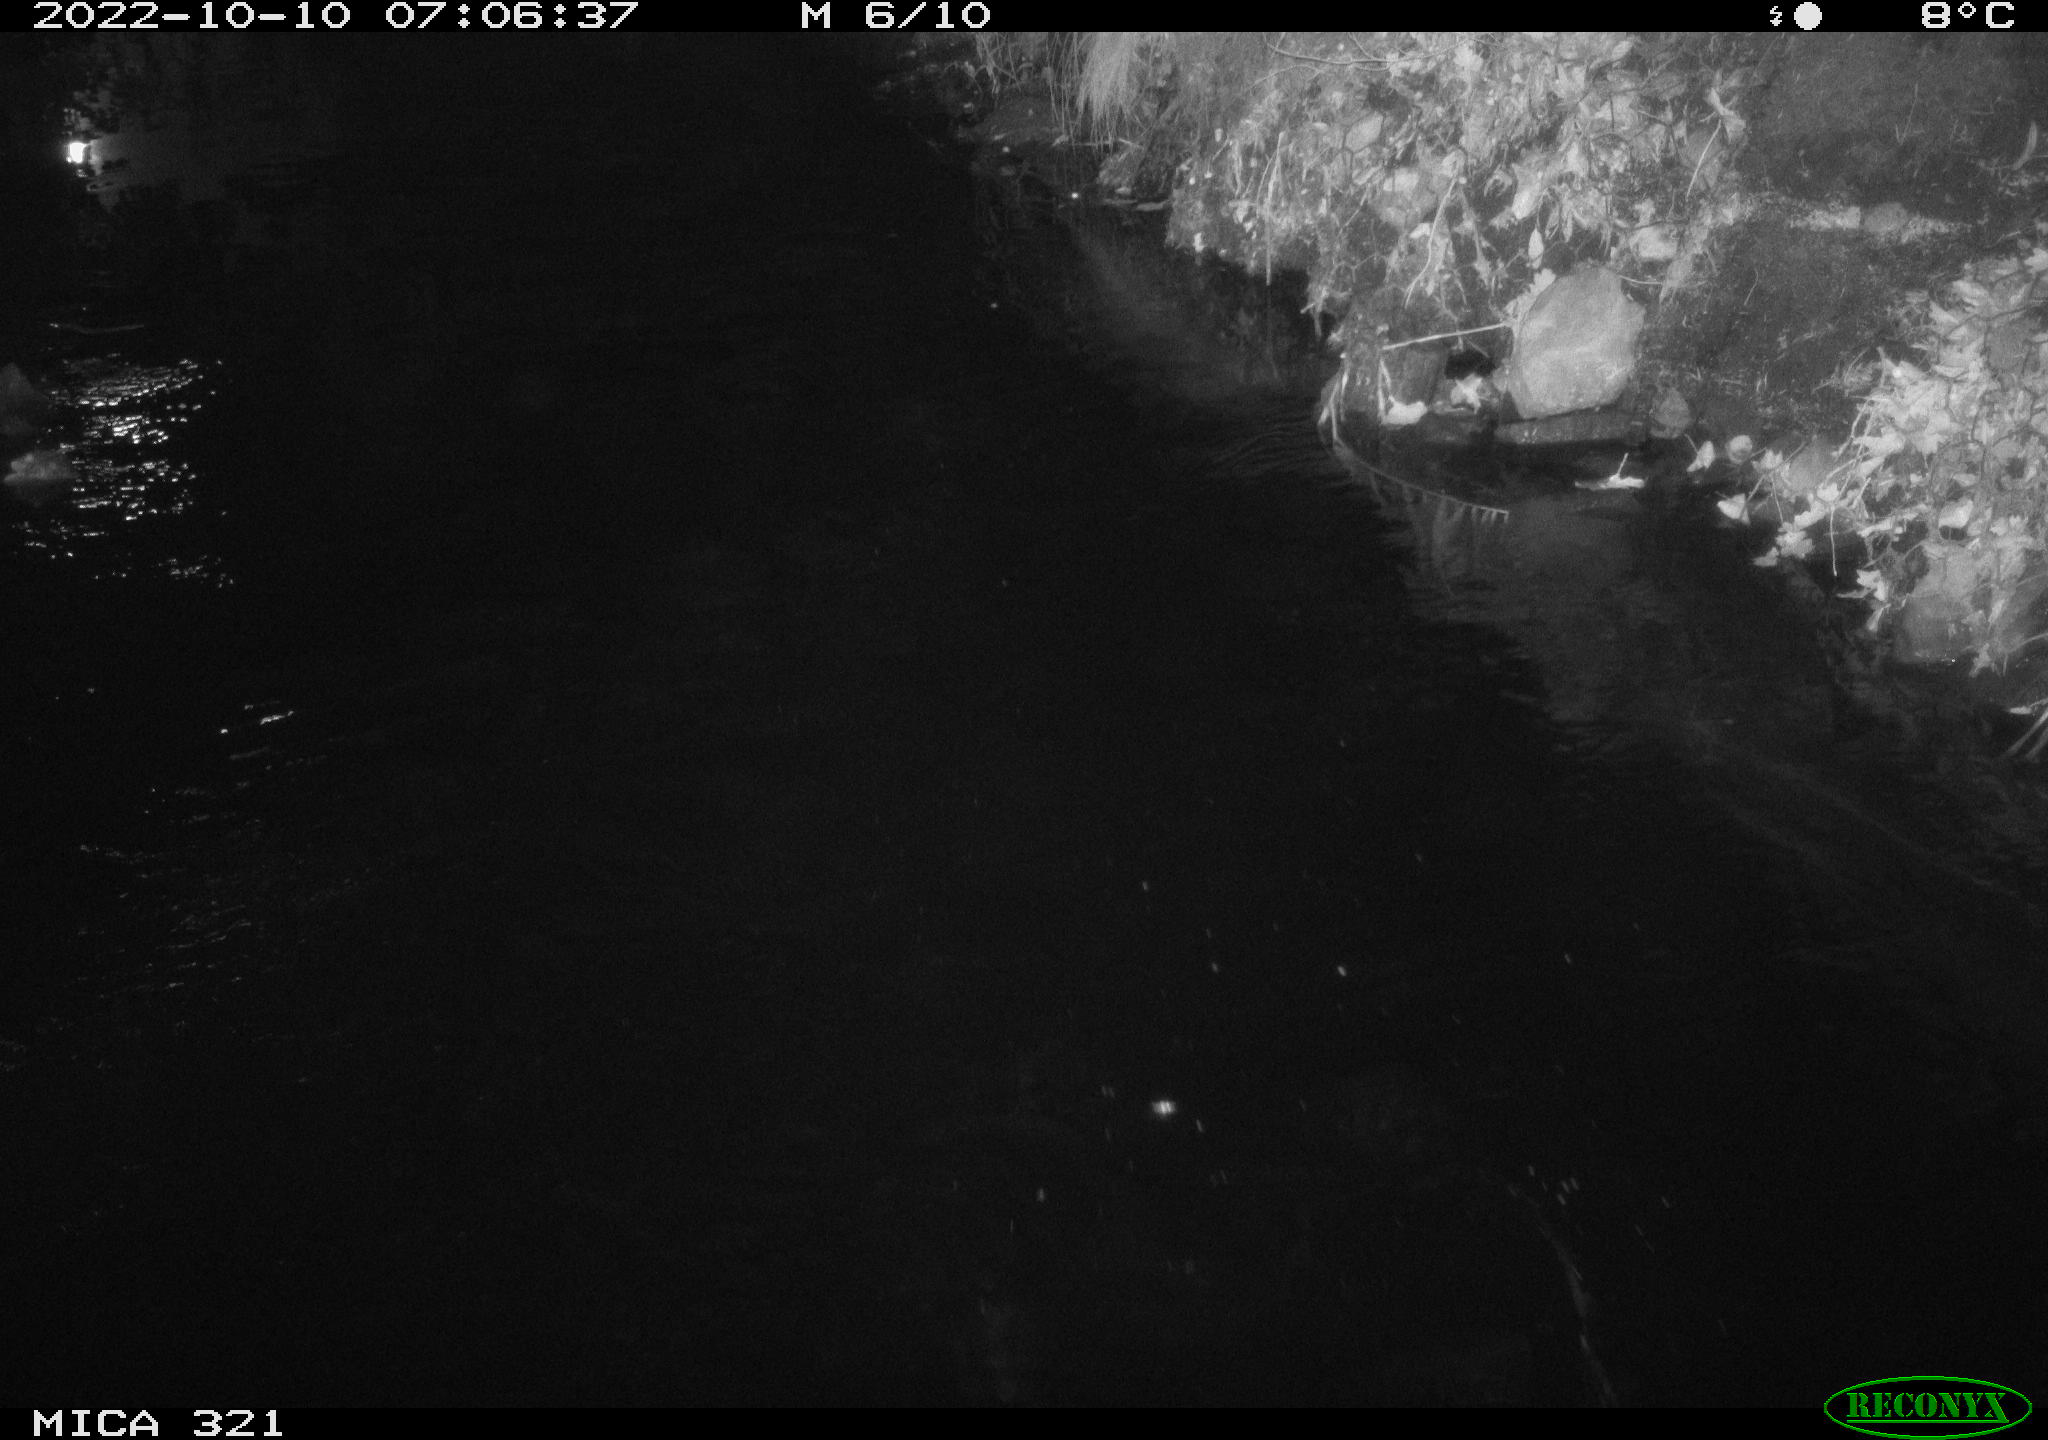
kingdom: Animalia
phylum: Chordata
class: Aves
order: Anseriformes
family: Anatidae
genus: Anas
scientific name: Anas
